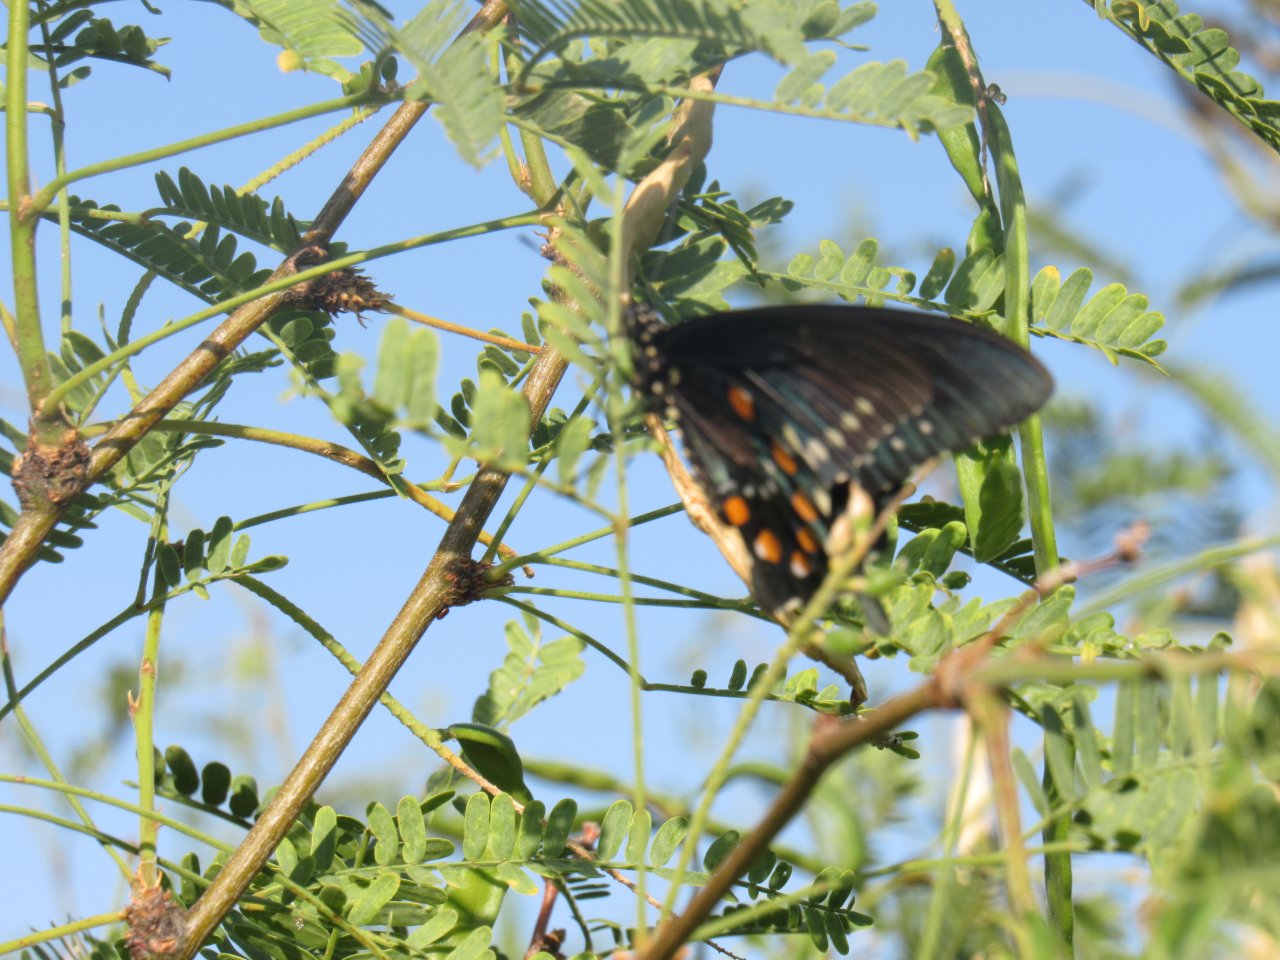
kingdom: Animalia
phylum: Arthropoda
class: Insecta
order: Lepidoptera
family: Papilionidae
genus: Battus
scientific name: Battus philenor
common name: Pipevine Swallowtail
